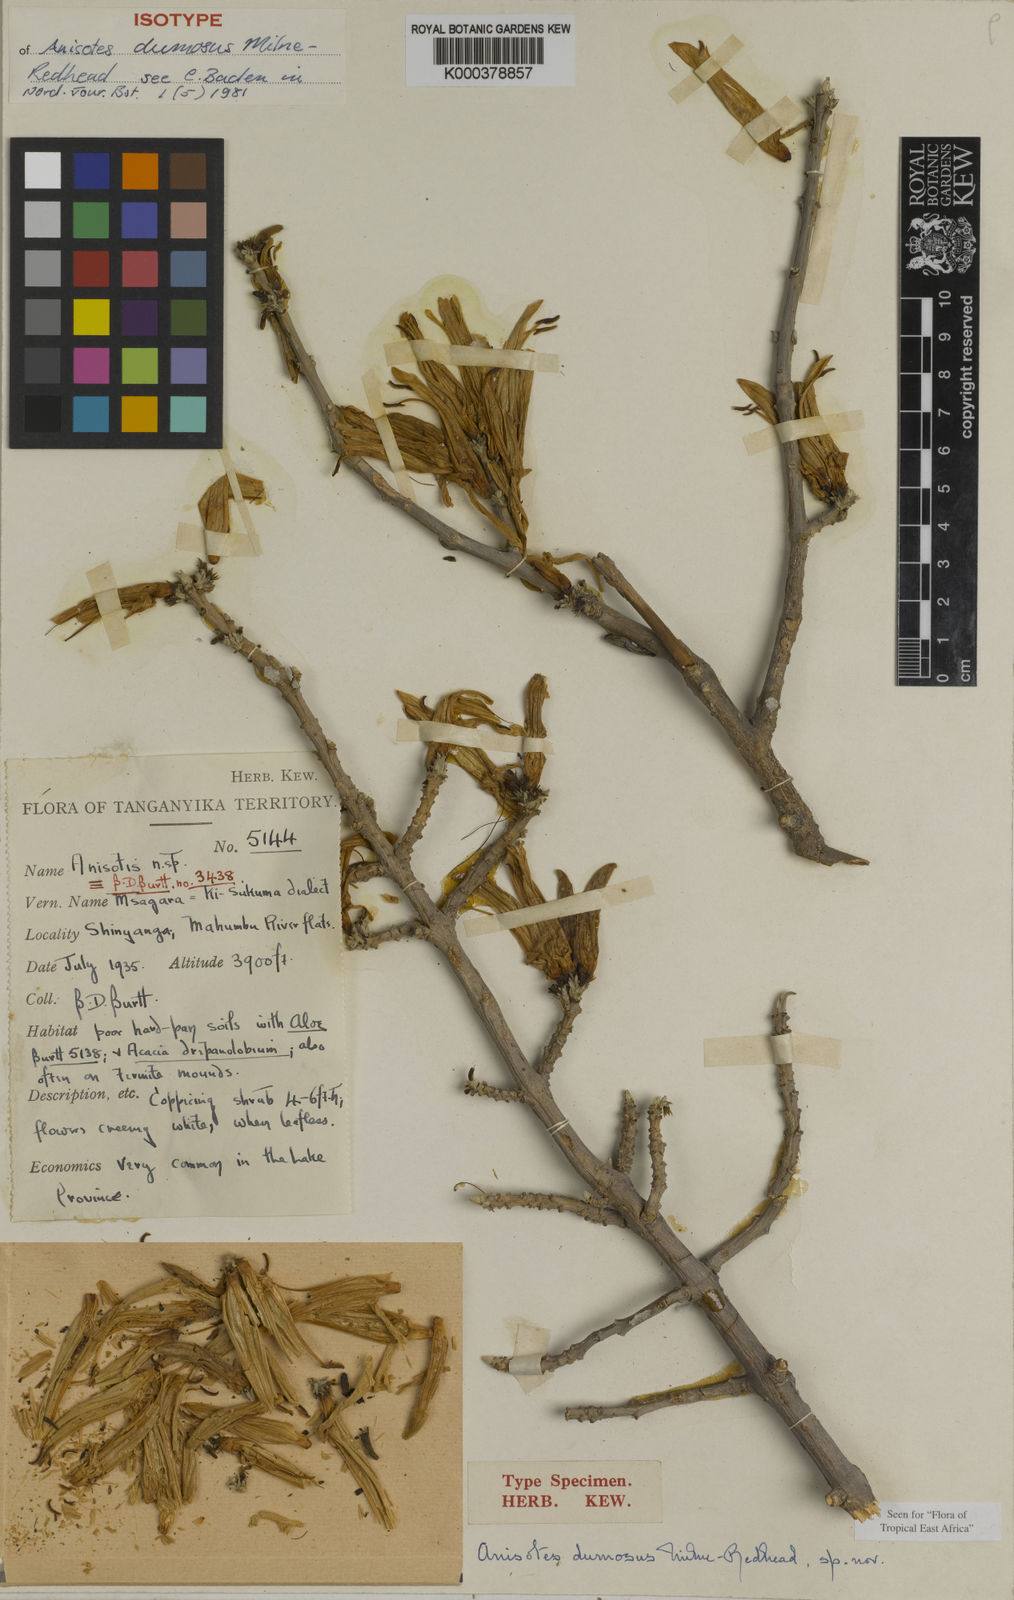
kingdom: Plantae
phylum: Tracheophyta
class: Magnoliopsida
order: Lamiales
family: Acanthaceae
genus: Anisotes
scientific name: Anisotes dumosus
